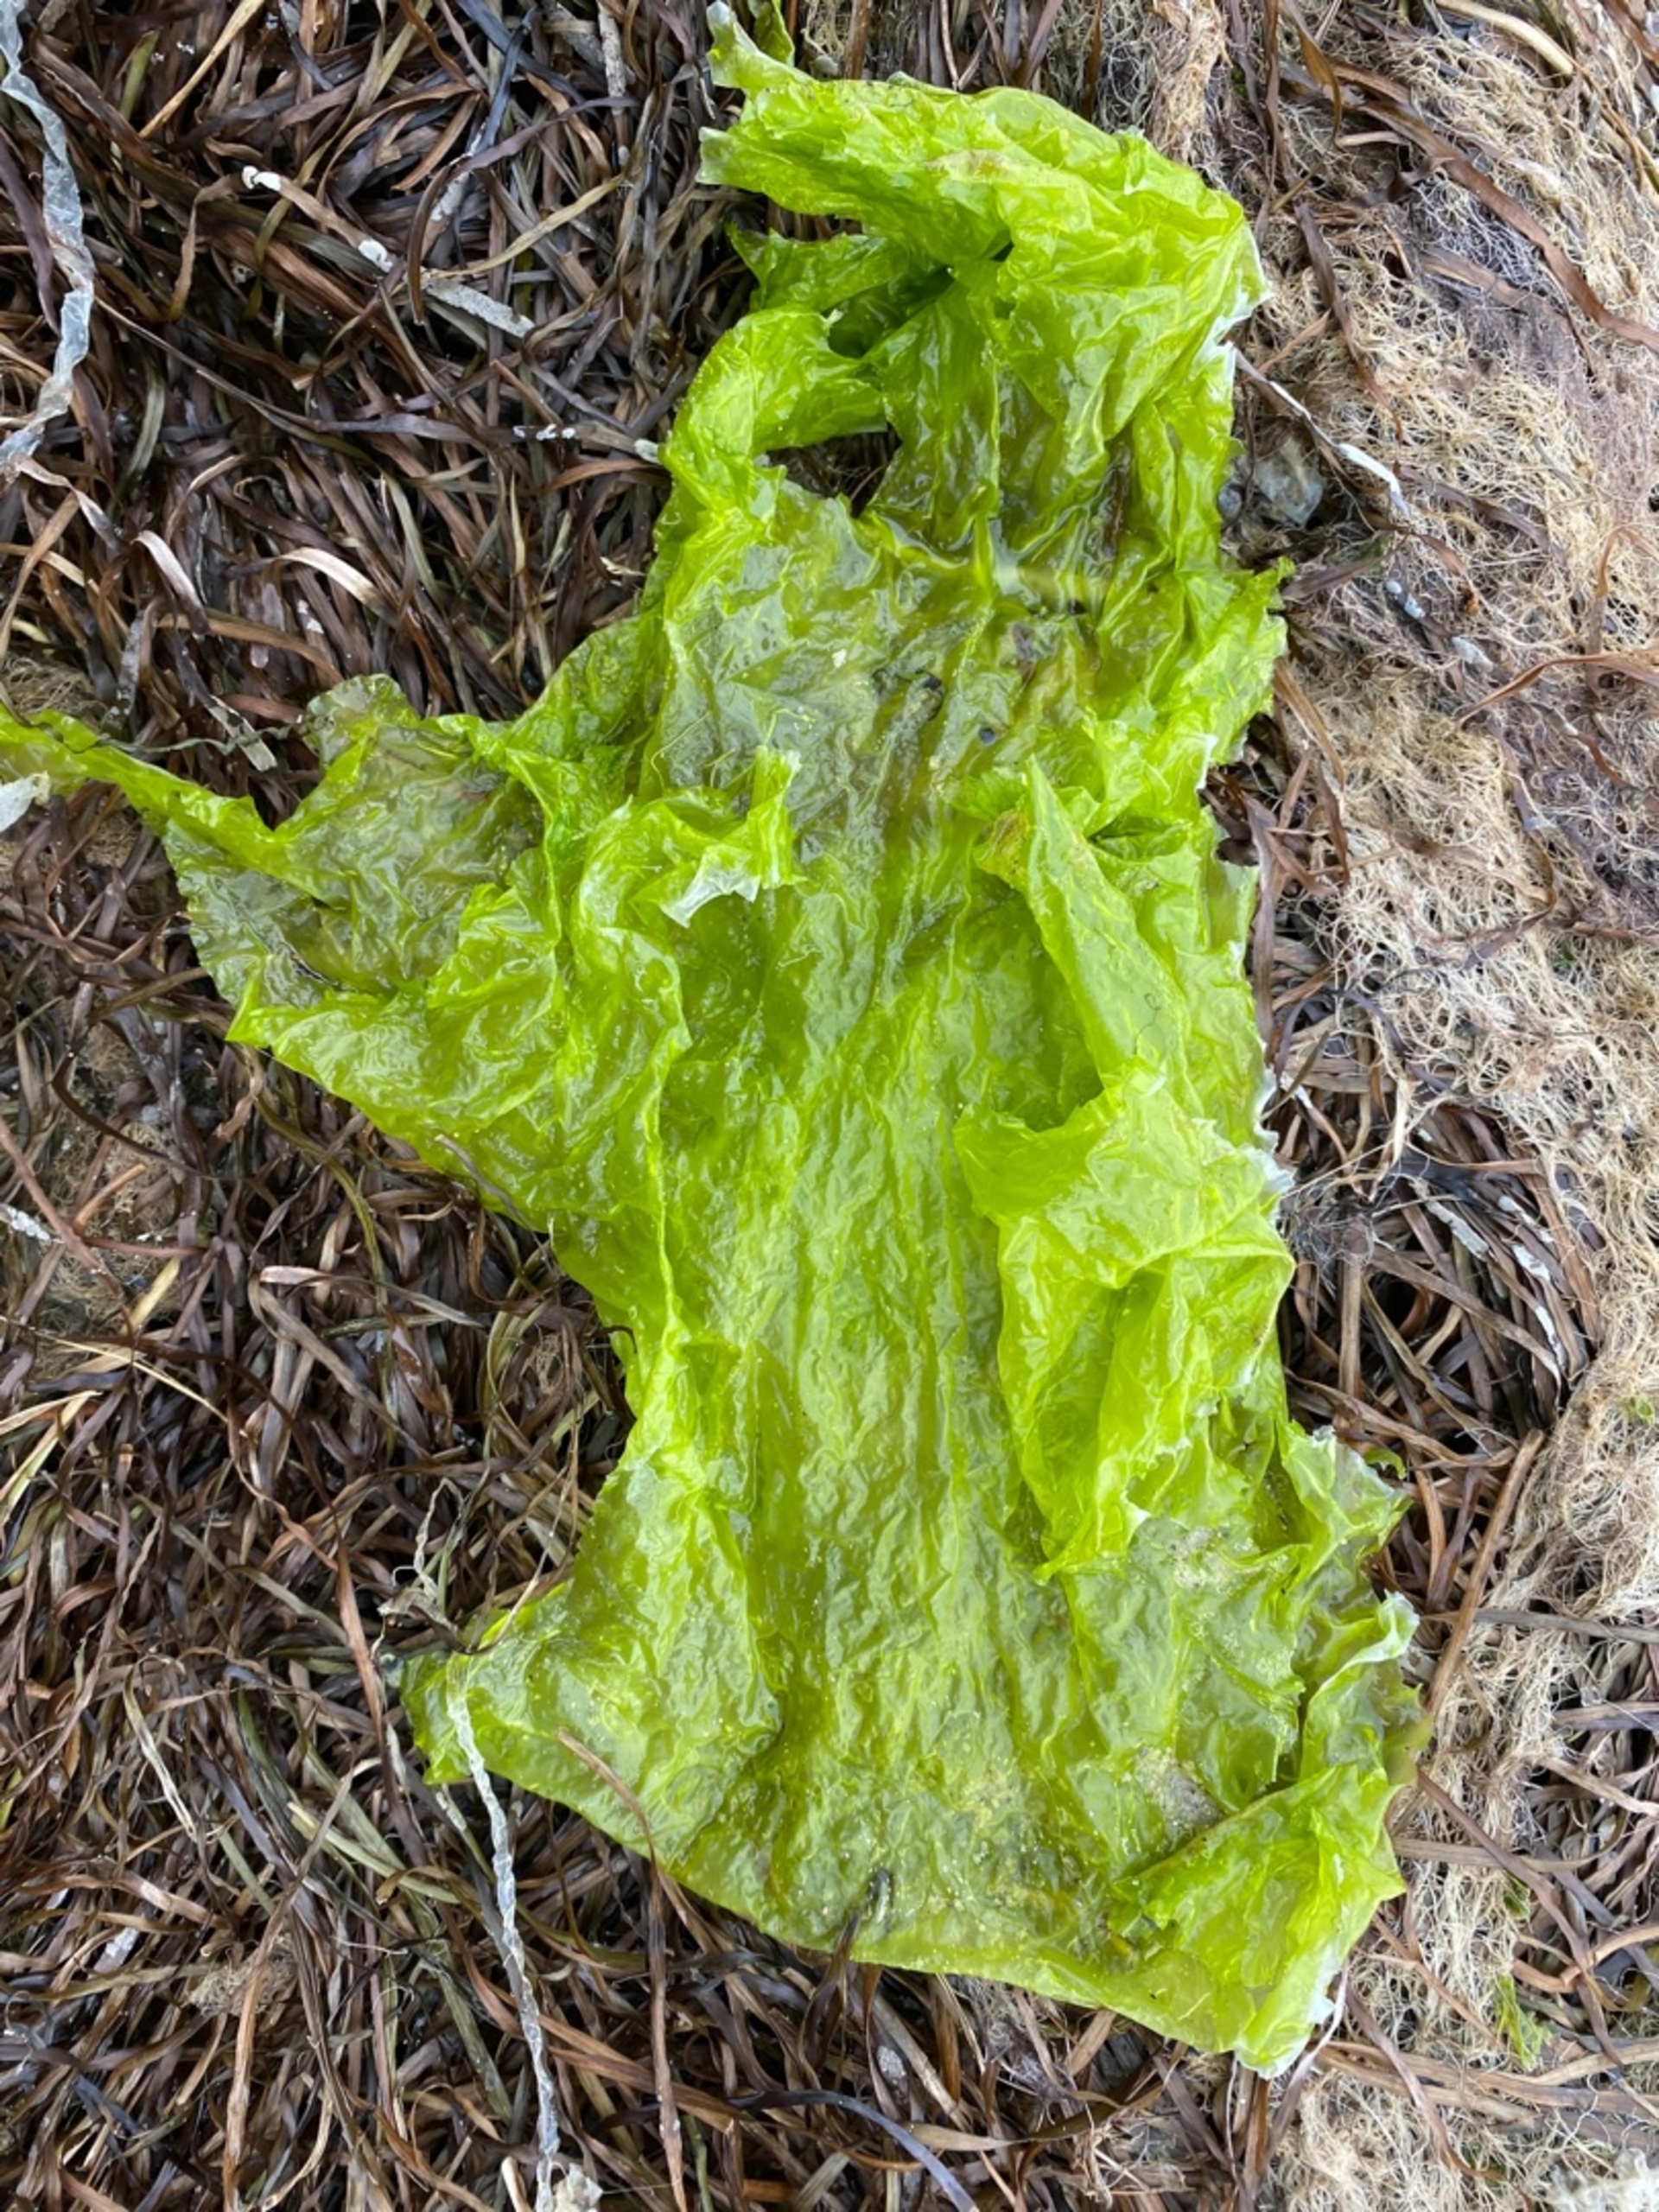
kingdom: Plantae
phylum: Chlorophyta
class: Ulvophyceae
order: Ulvales
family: Ulvaceae
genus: Ulva
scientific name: Ulva intestinalis
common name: Tarm-rørhinde
